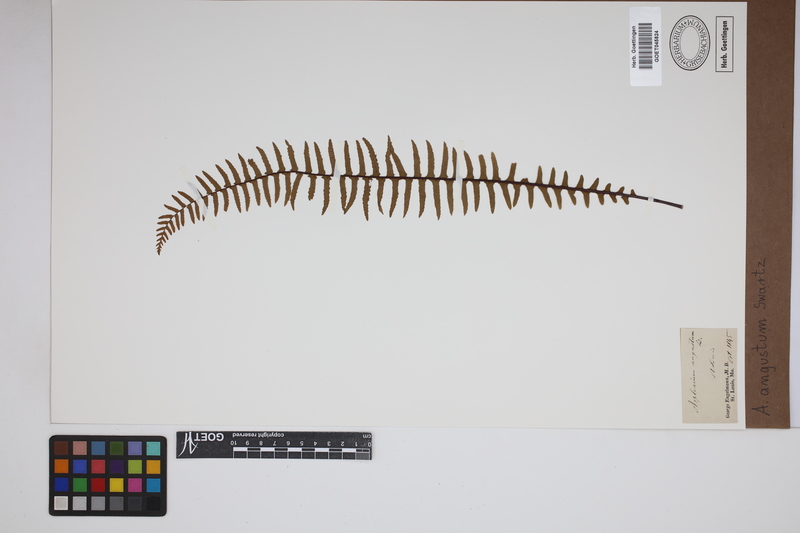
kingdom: Plantae
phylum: Tracheophyta
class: Polypodiopsida
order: Polypodiales
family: Aspleniaceae
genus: Asplenium
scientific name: Asplenium angustum
